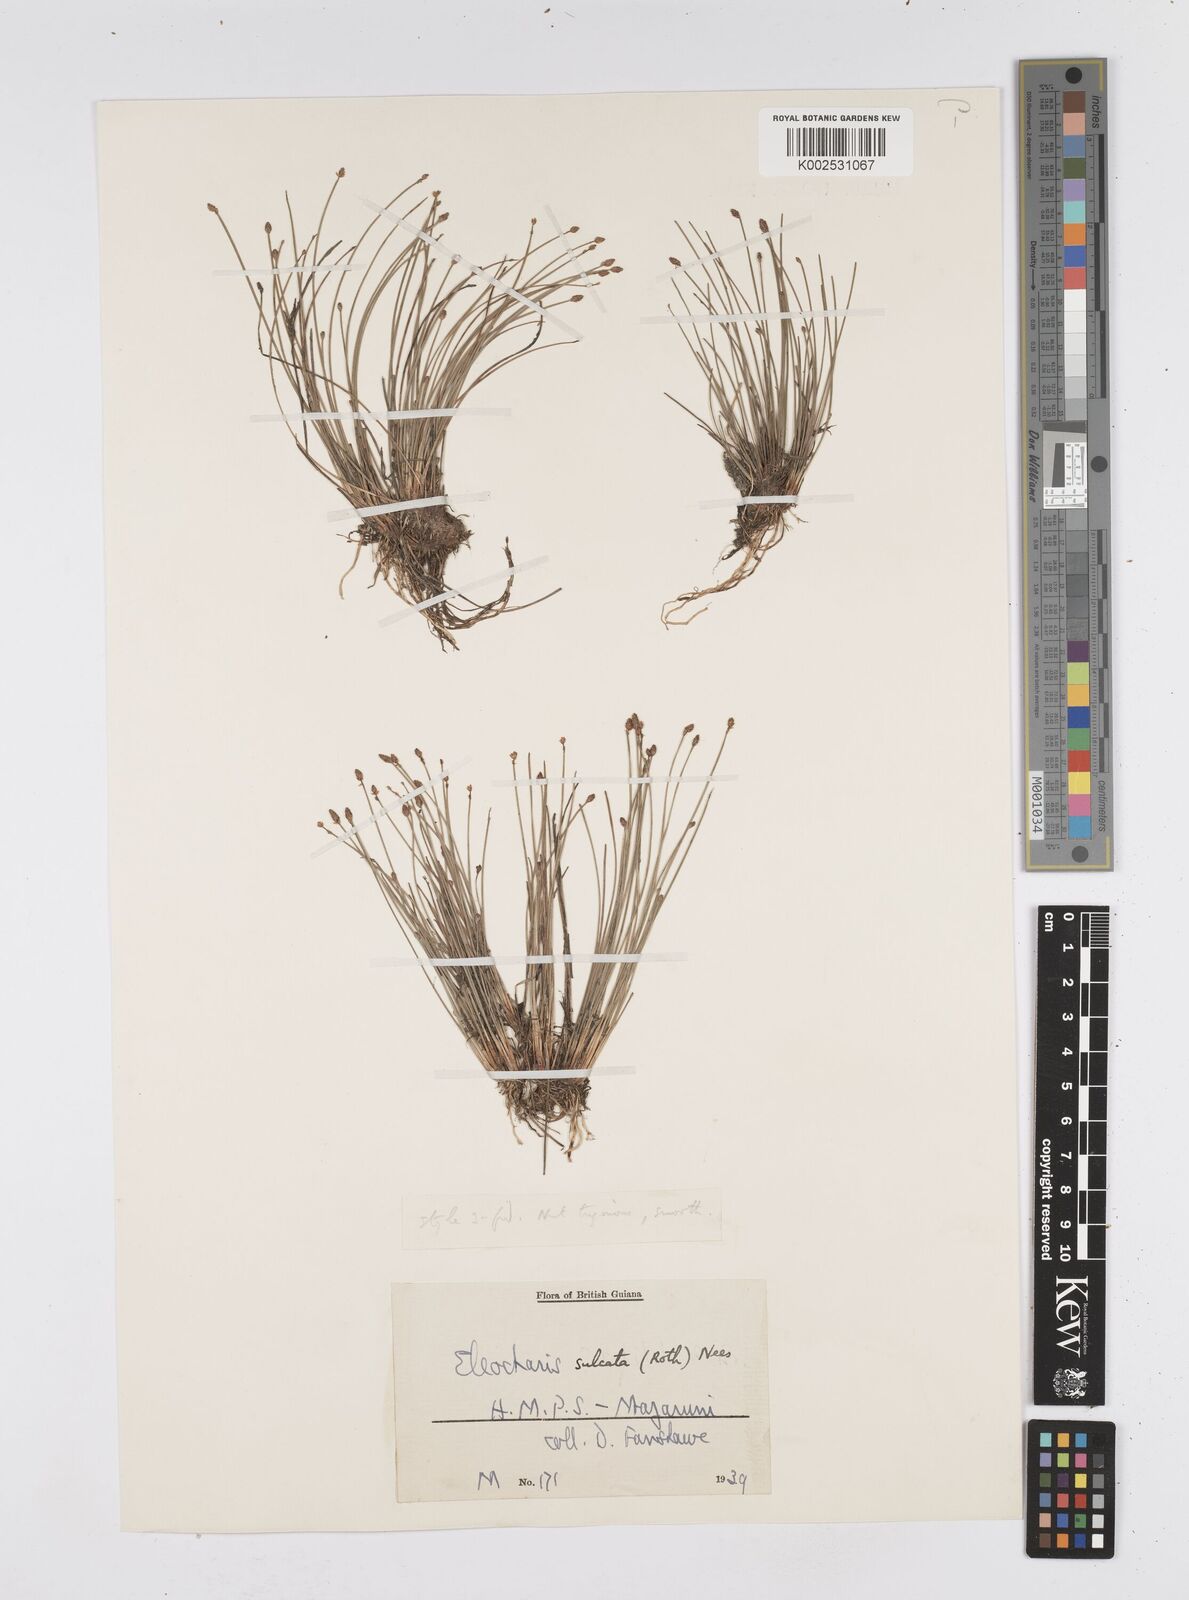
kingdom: Plantae
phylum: Tracheophyta
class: Liliopsida
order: Poales
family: Cyperaceae
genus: Eleocharis
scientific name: Eleocharis filiculmis
